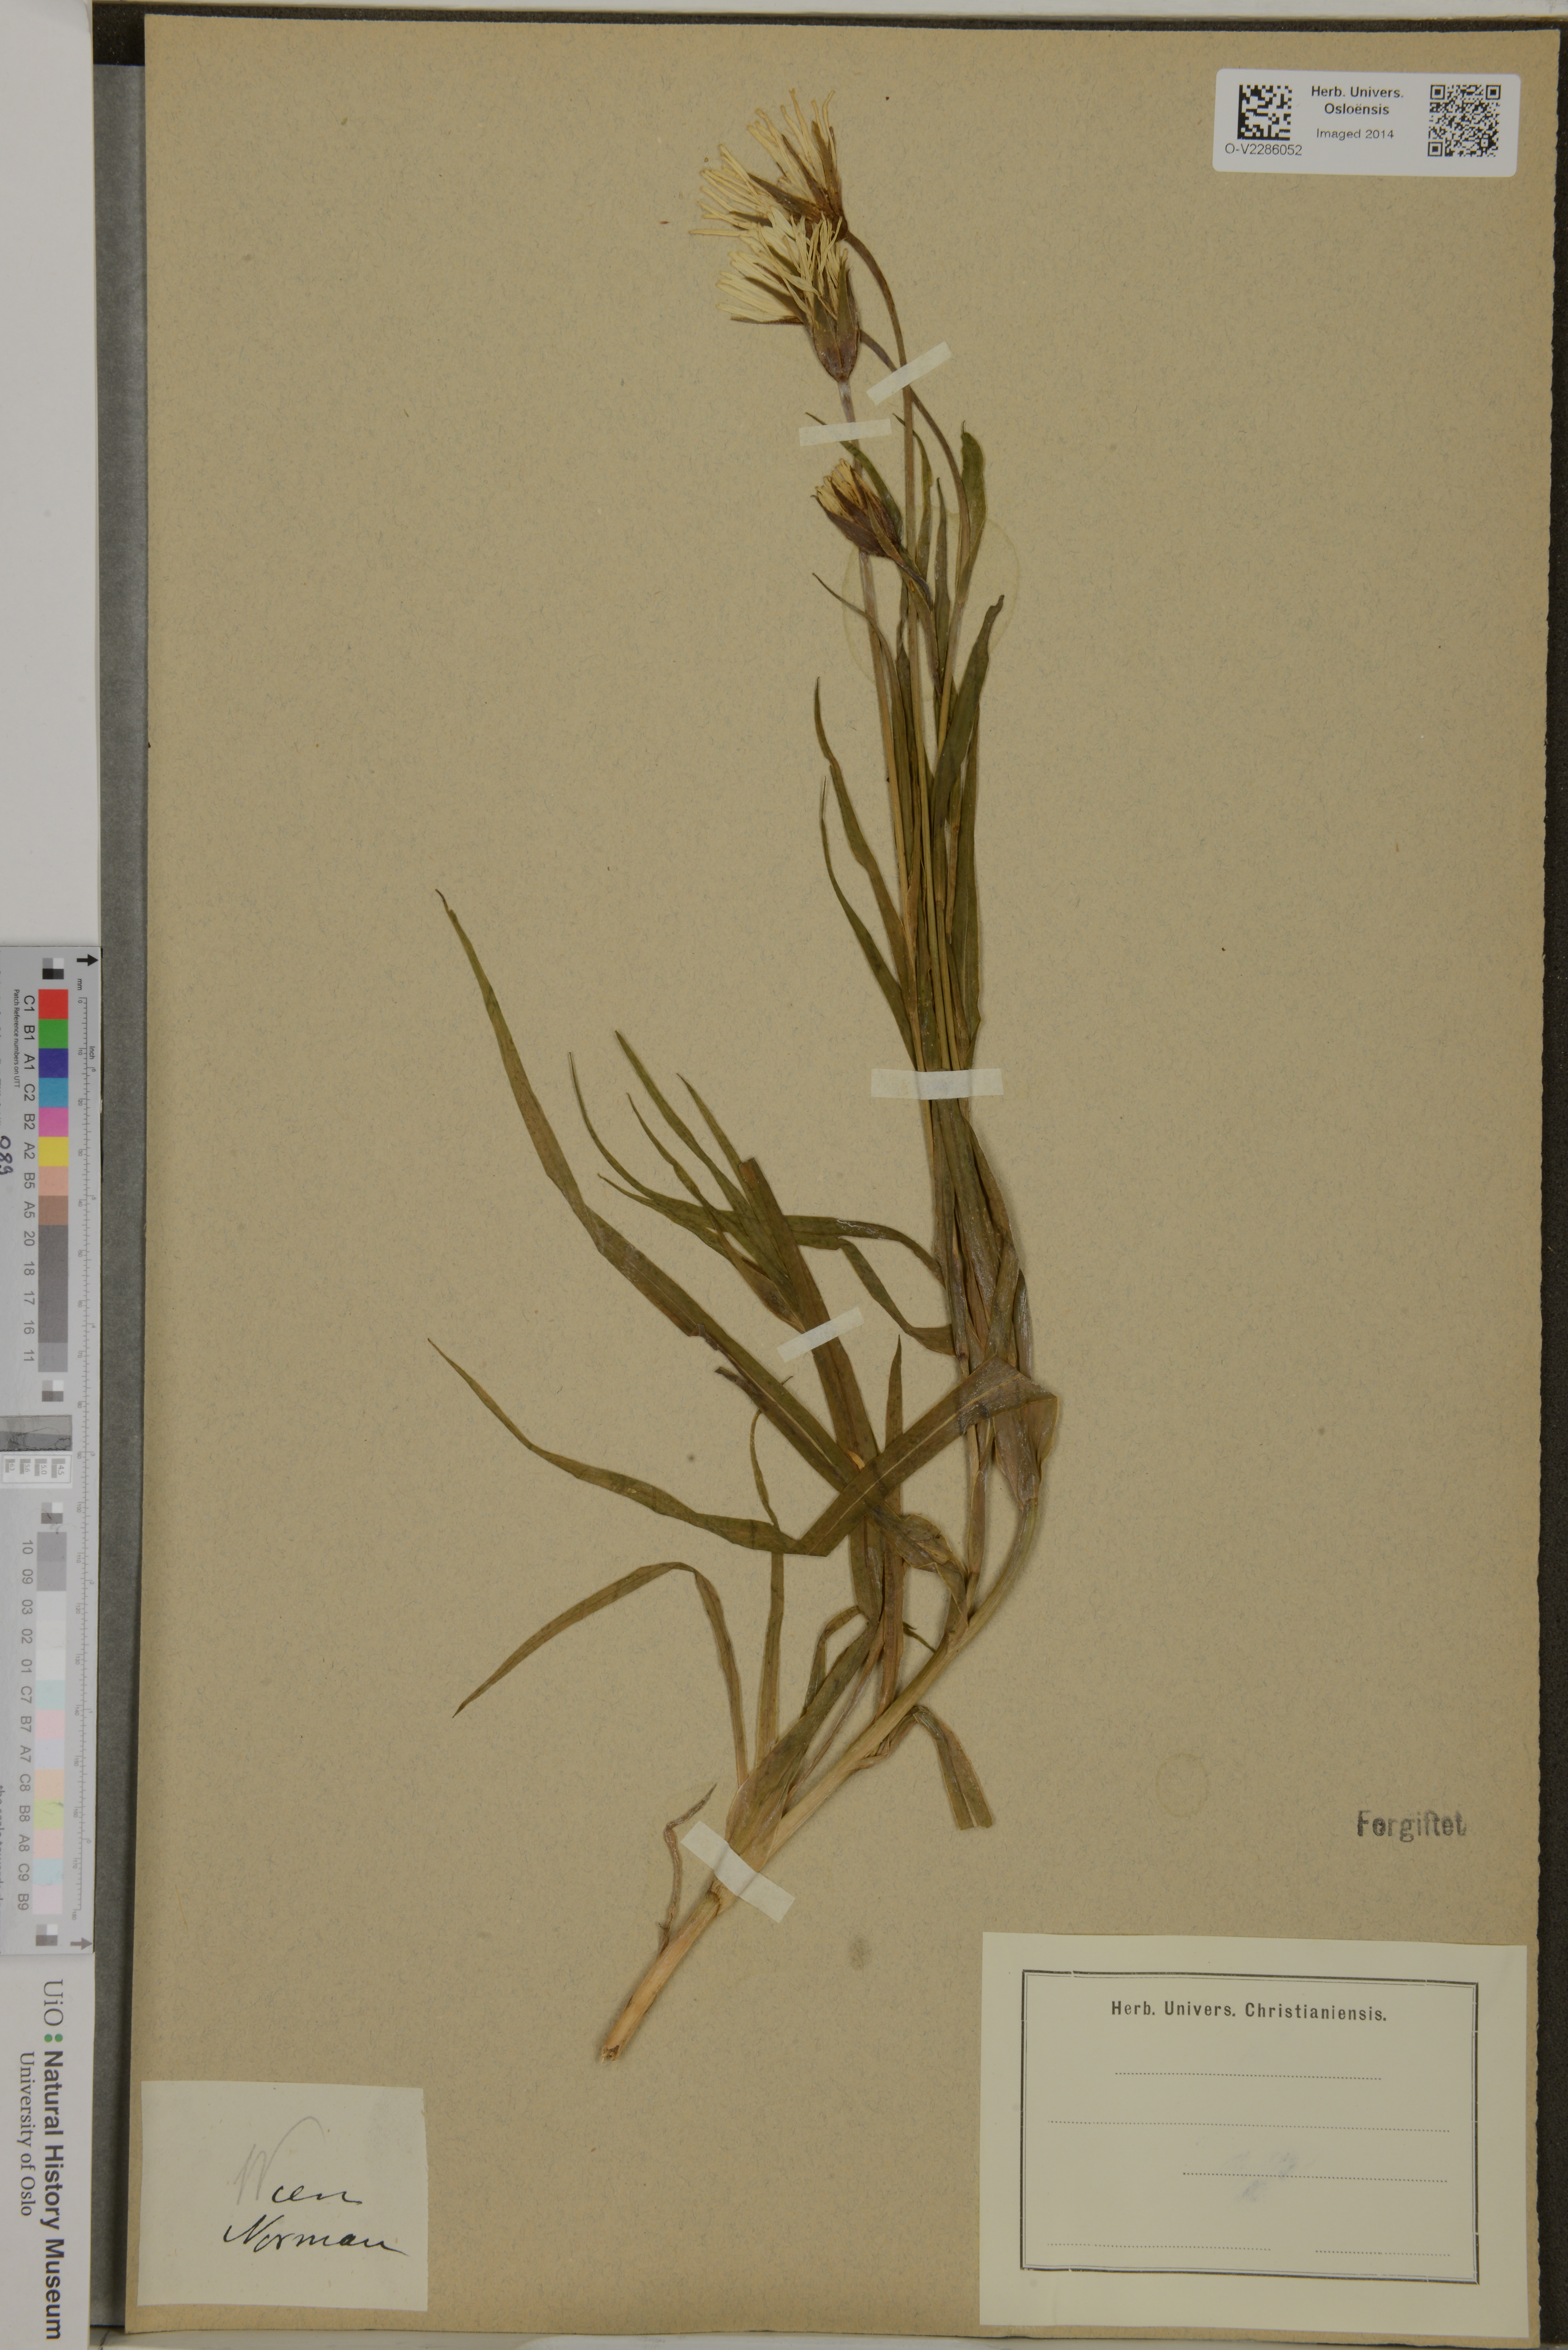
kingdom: Plantae
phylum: Tracheophyta
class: Magnoliopsida
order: Asterales
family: Asteraceae
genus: Tragopogon
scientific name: Tragopogon
